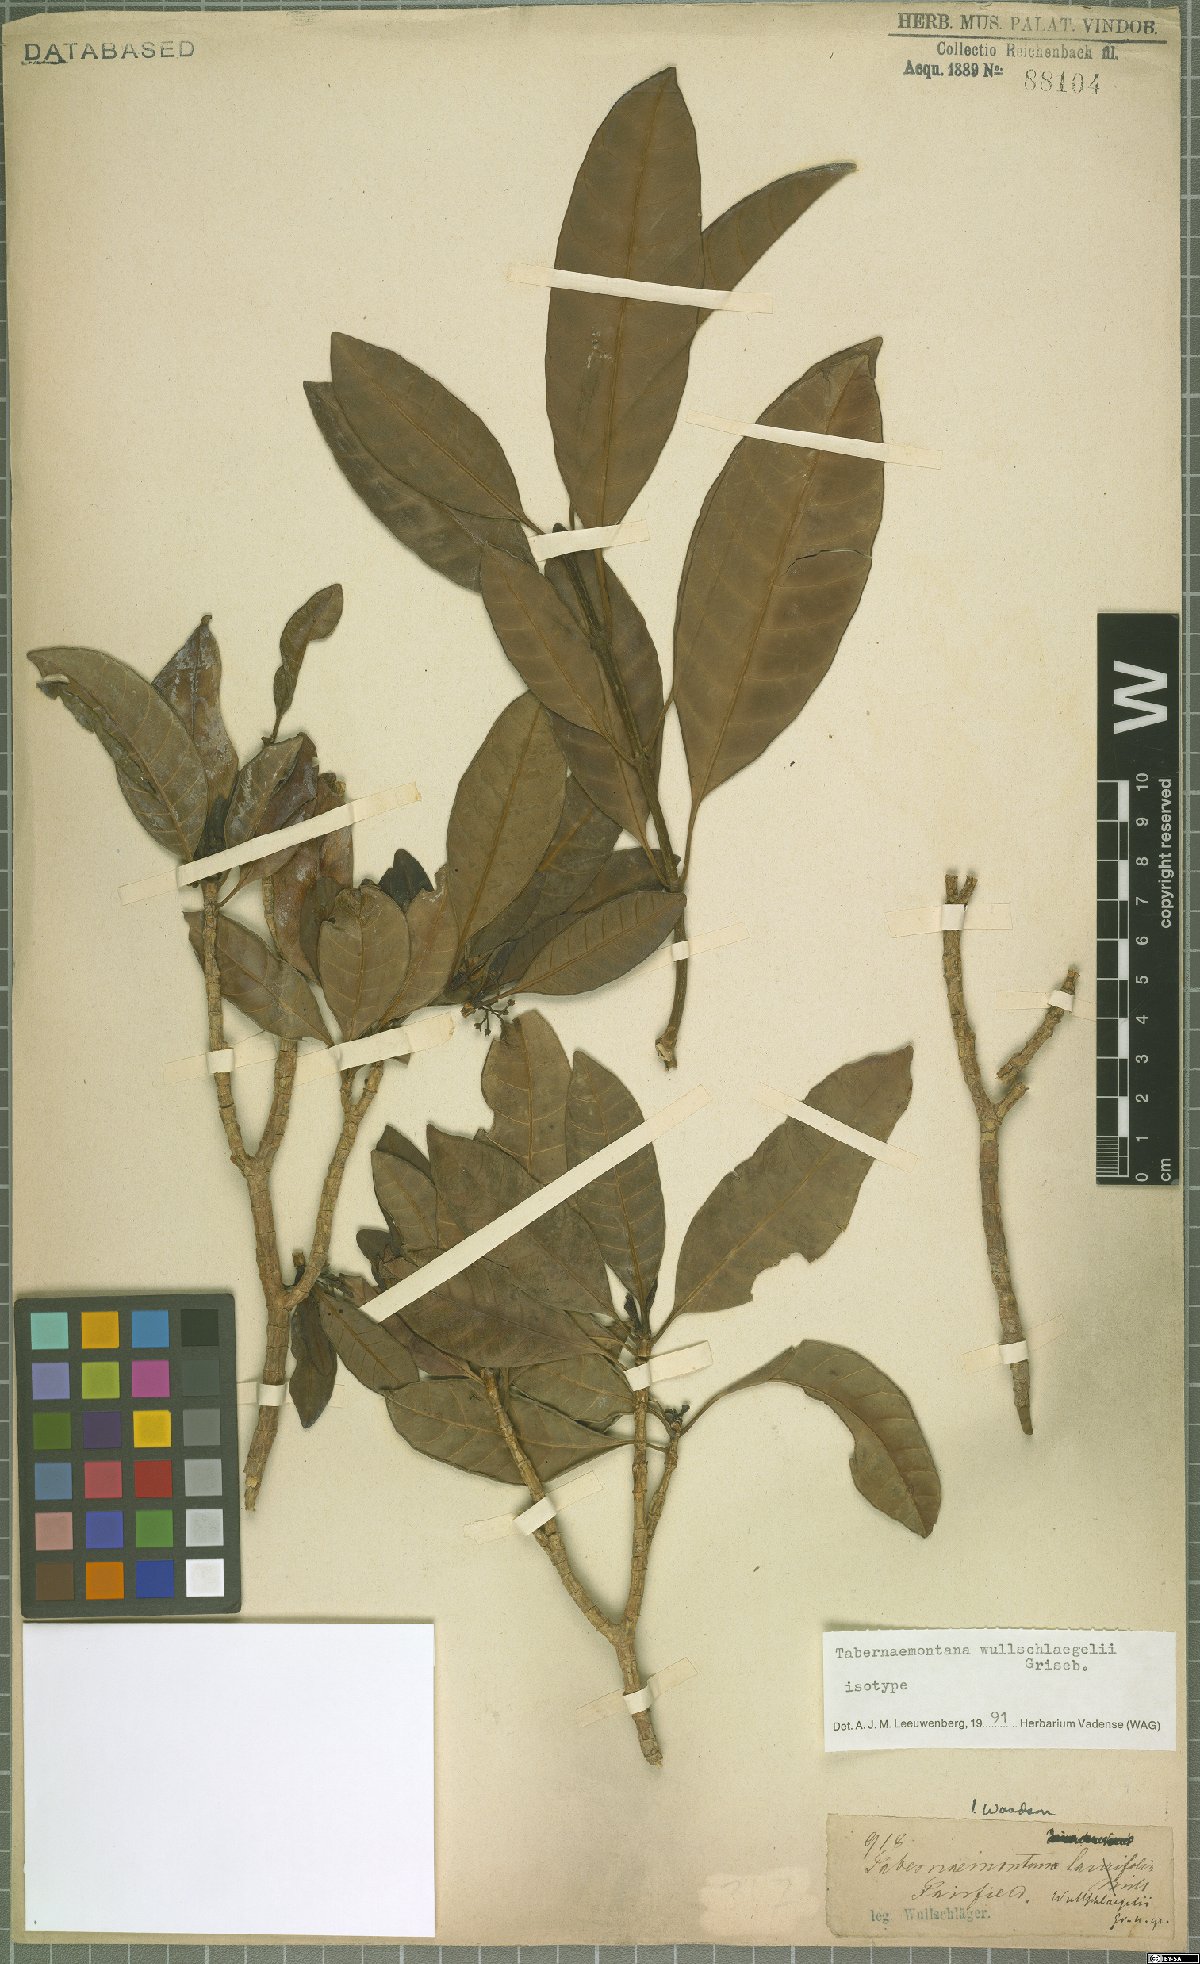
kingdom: Plantae
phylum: Tracheophyta
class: Magnoliopsida
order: Gentianales
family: Apocynaceae
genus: Tabernaemontana
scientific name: Tabernaemontana wullschlaegelii
